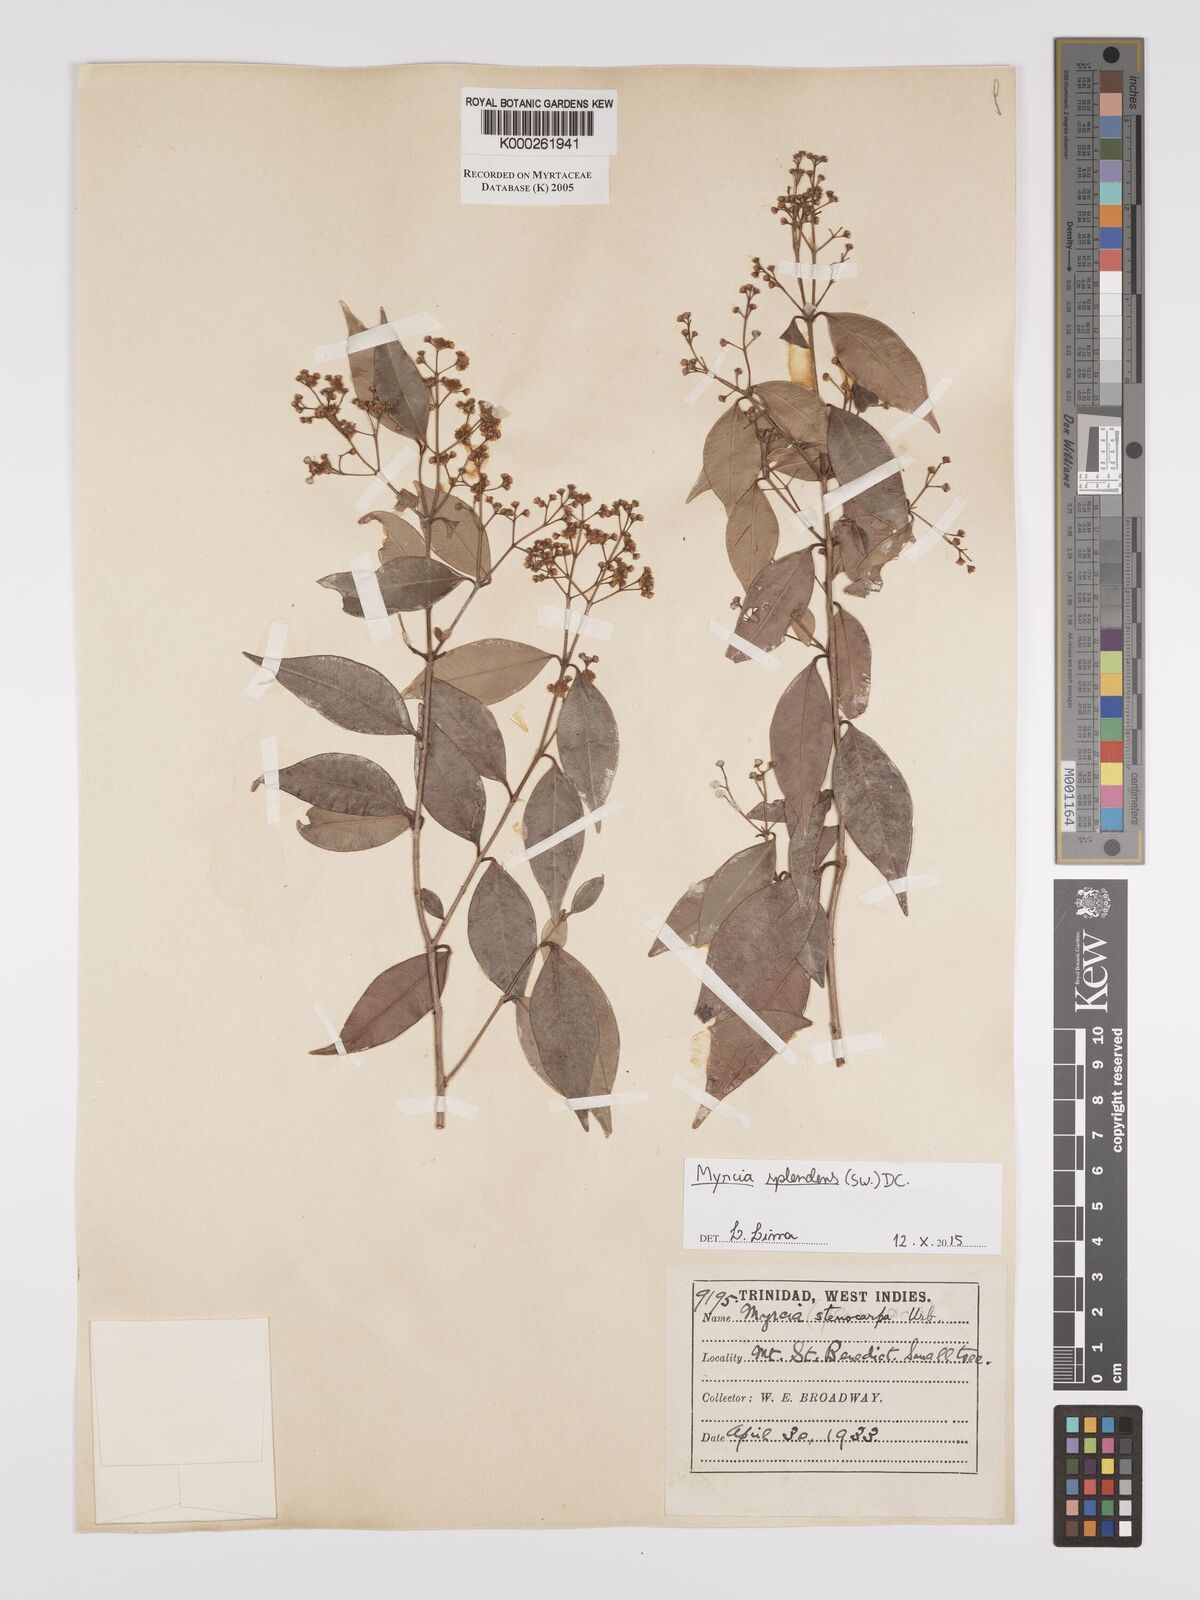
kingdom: Plantae
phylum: Tracheophyta
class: Magnoliopsida
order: Myrtales
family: Myrtaceae
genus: Myrcia
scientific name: Myrcia stenocarpa
